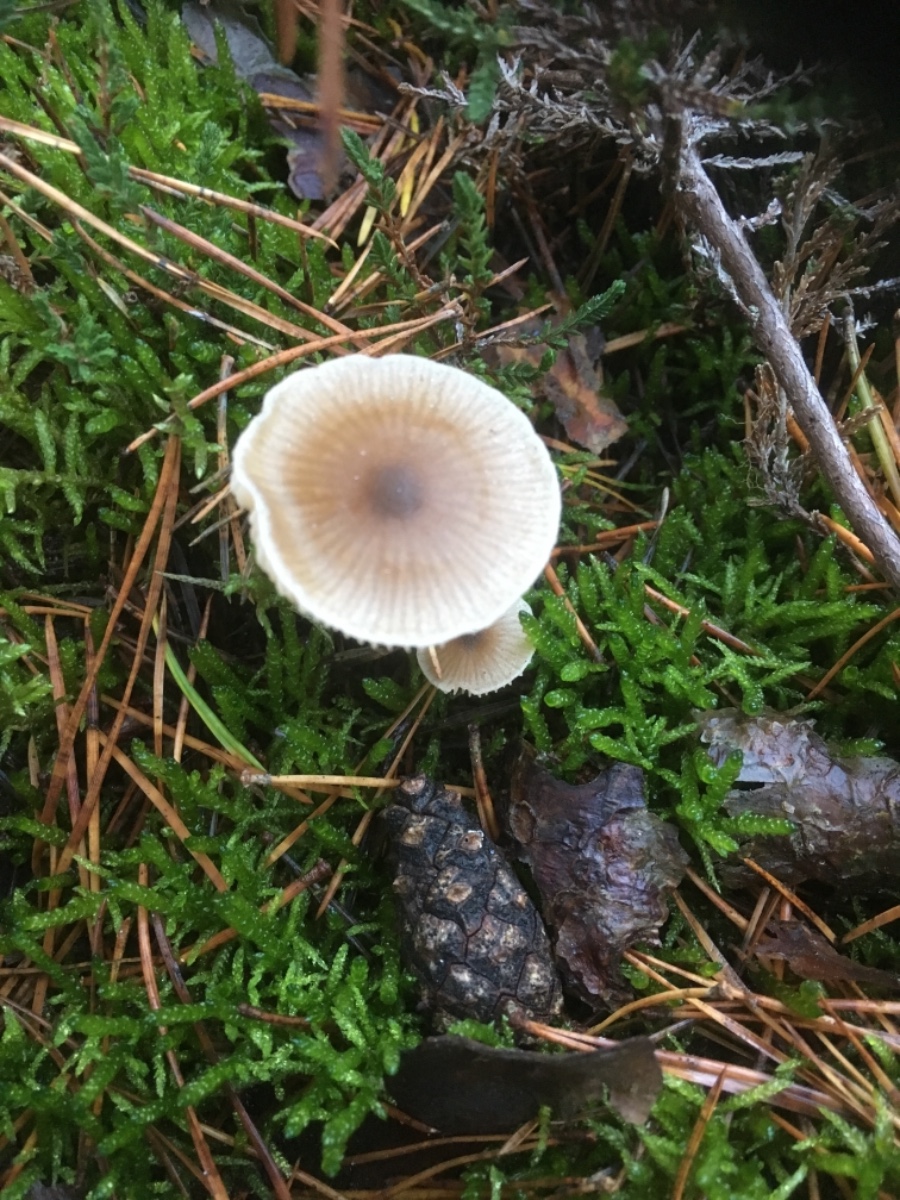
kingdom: Fungi
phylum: Basidiomycota
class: Agaricomycetes
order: Agaricales
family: Entolomataceae
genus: Entoloma
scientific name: Entoloma
